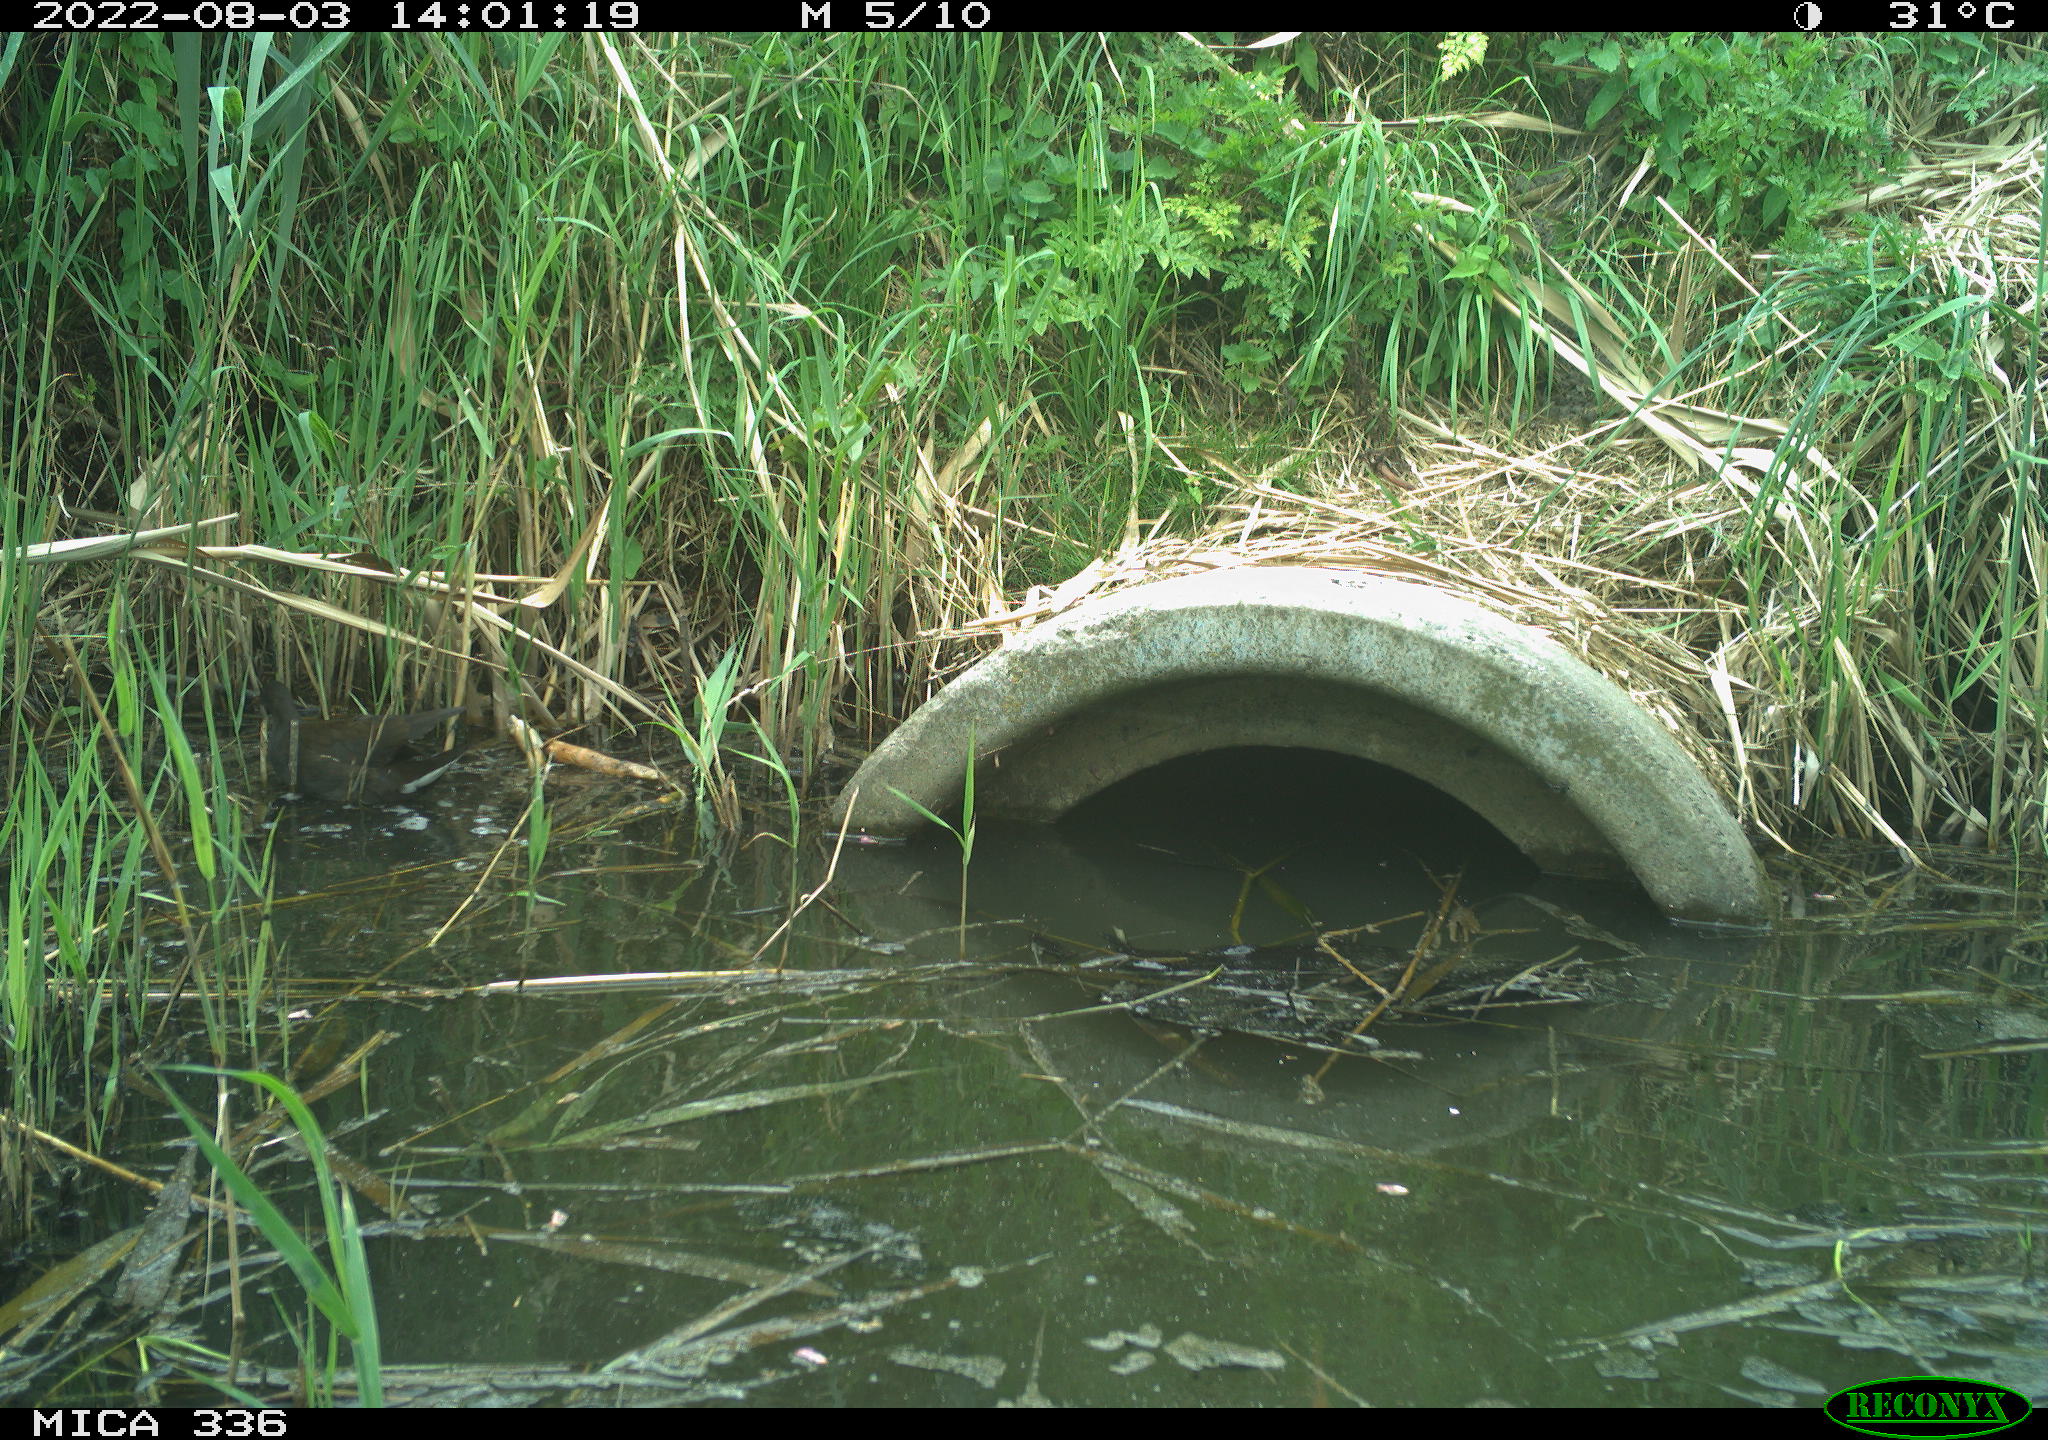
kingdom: Animalia
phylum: Chordata
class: Aves
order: Gruiformes
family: Rallidae
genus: Gallinula
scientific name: Gallinula chloropus
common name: Common moorhen
